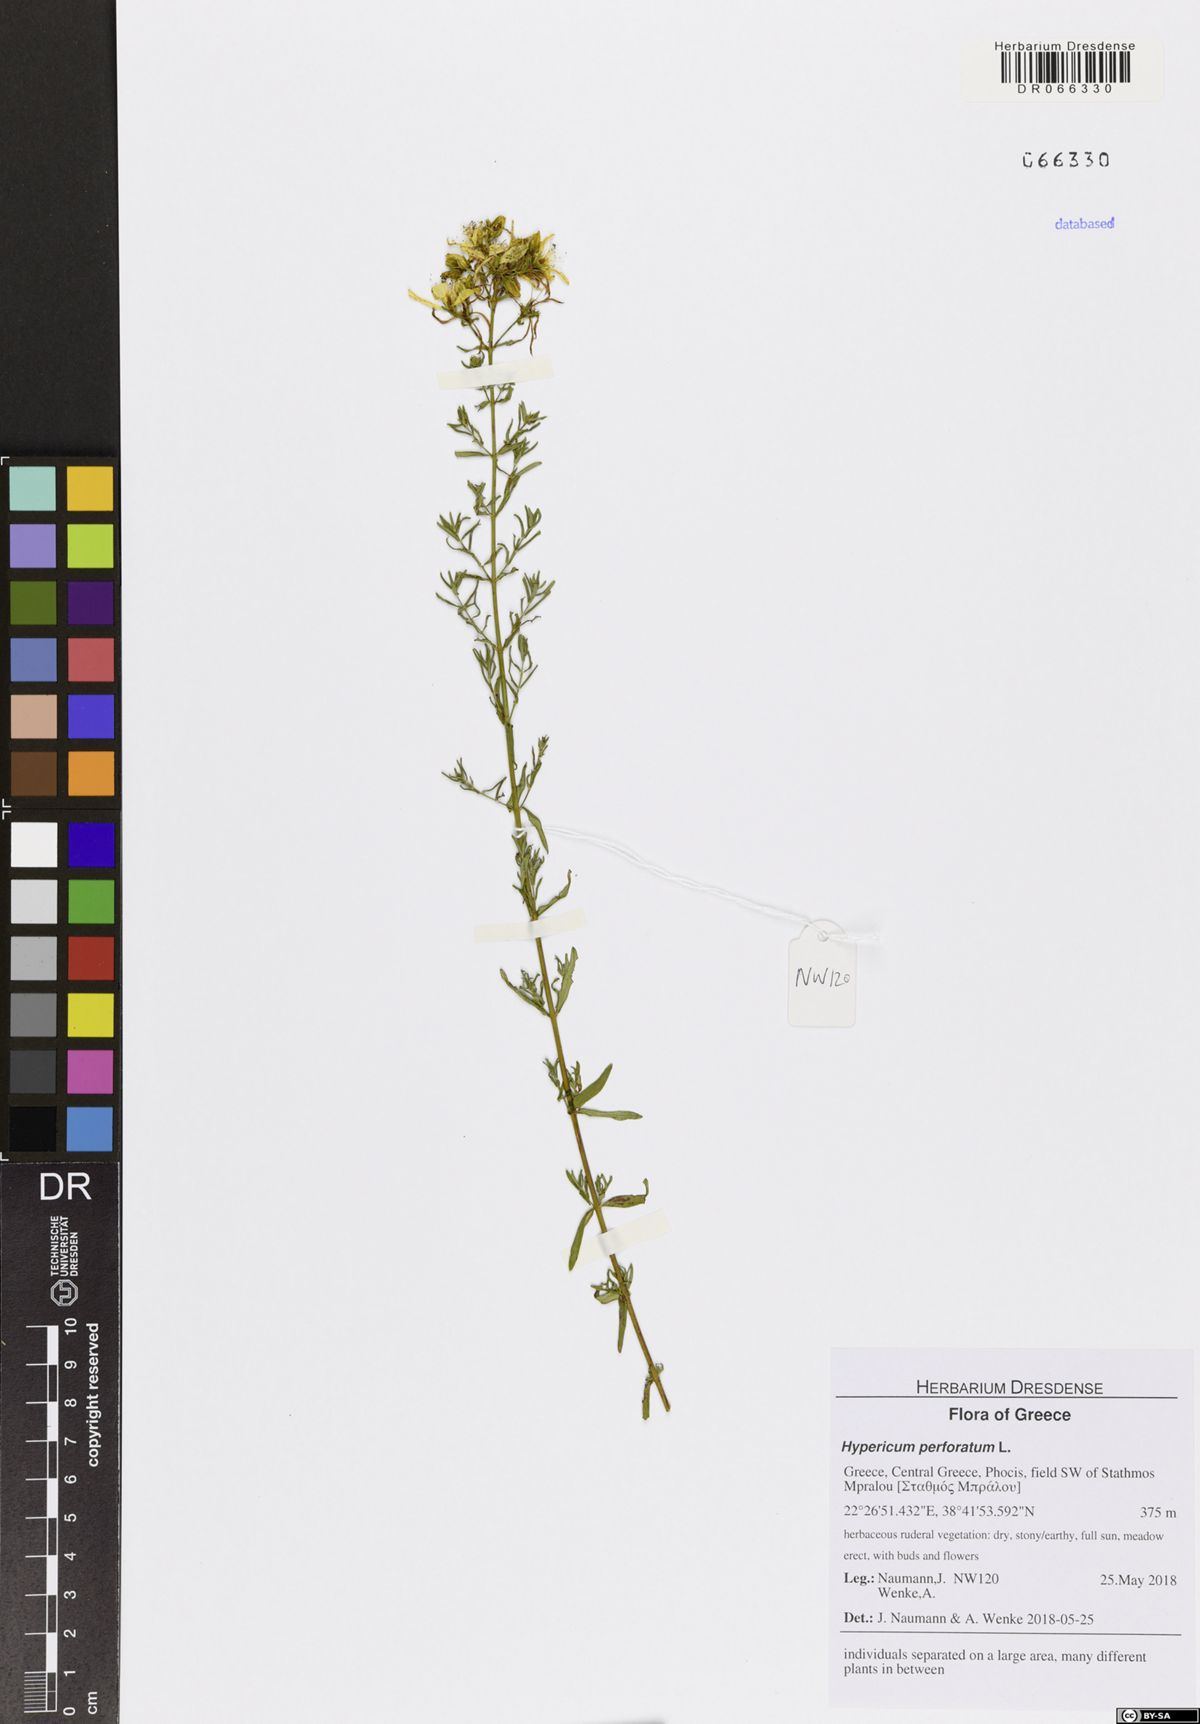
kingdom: Plantae
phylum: Tracheophyta
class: Magnoliopsida
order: Malpighiales
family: Hypericaceae
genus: Hypericum
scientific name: Hypericum perforatum
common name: Common st. johnswort
